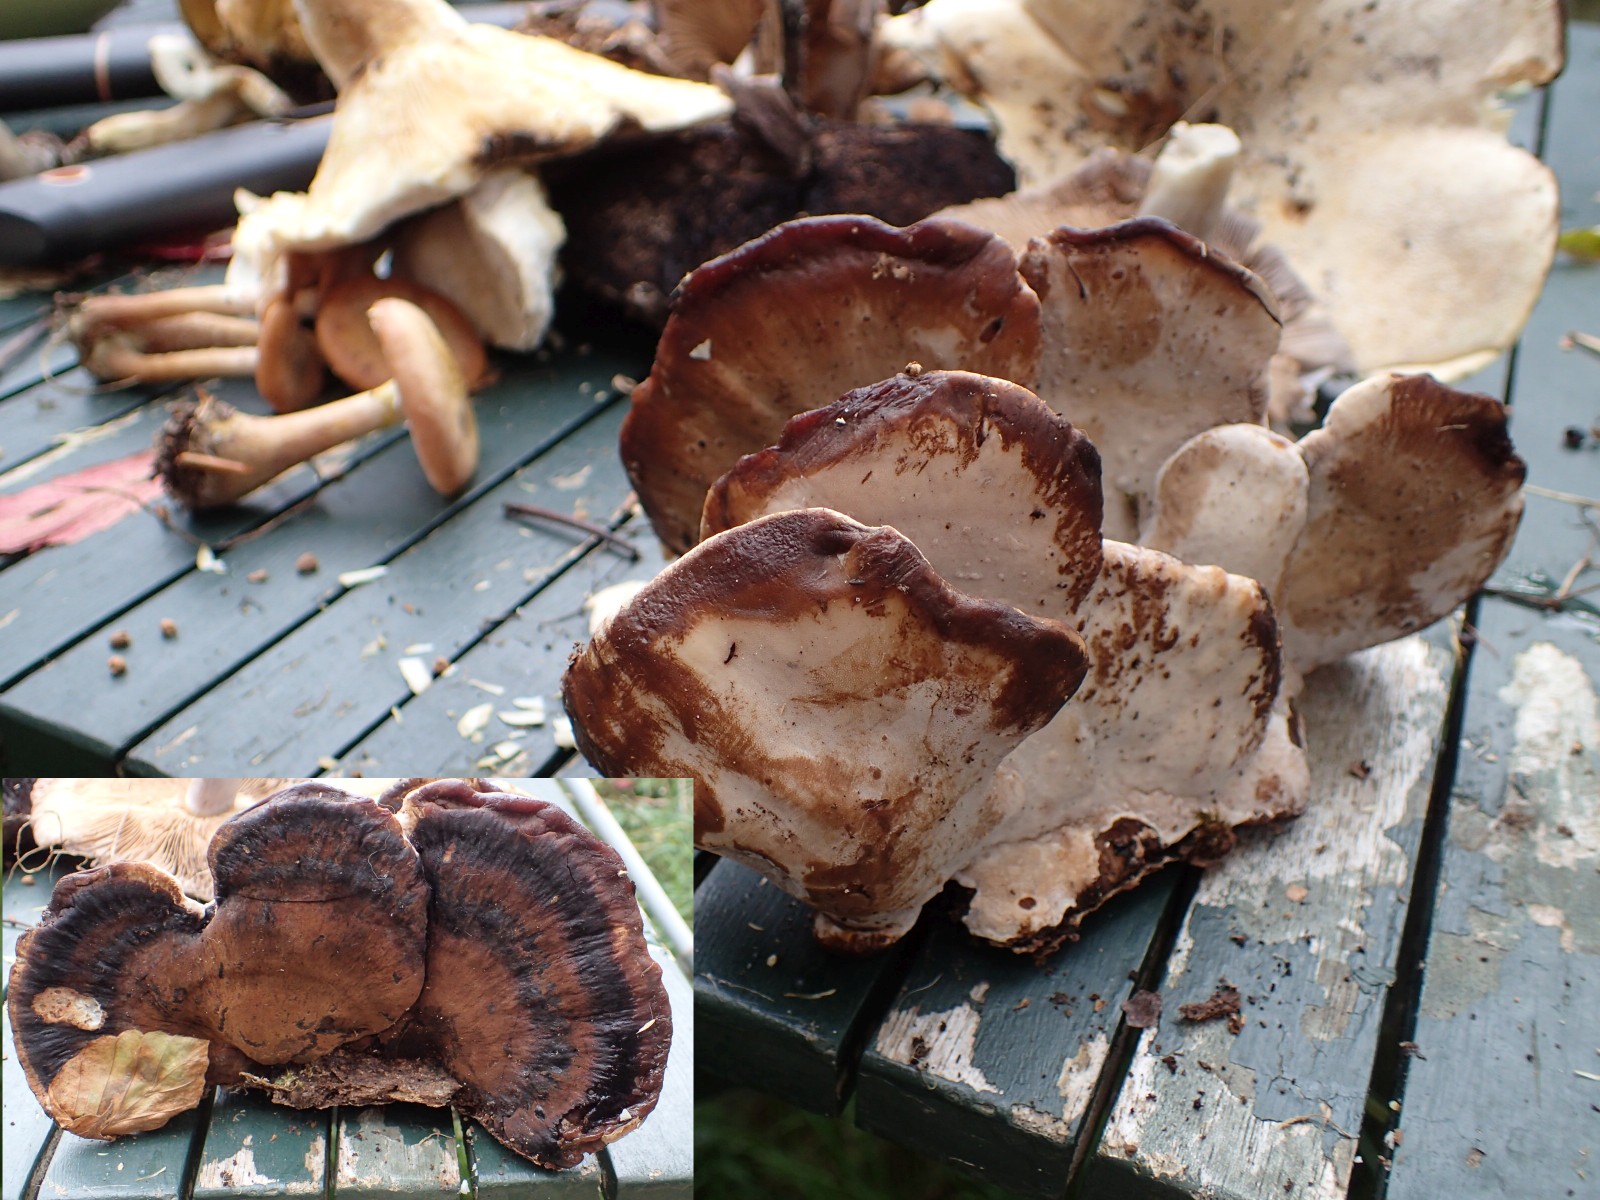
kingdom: Fungi
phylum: Basidiomycota
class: Agaricomycetes
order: Polyporales
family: Ischnodermataceae
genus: Ischnoderma
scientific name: Ischnoderma resinosum
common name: løv-tjæreporesvamp
